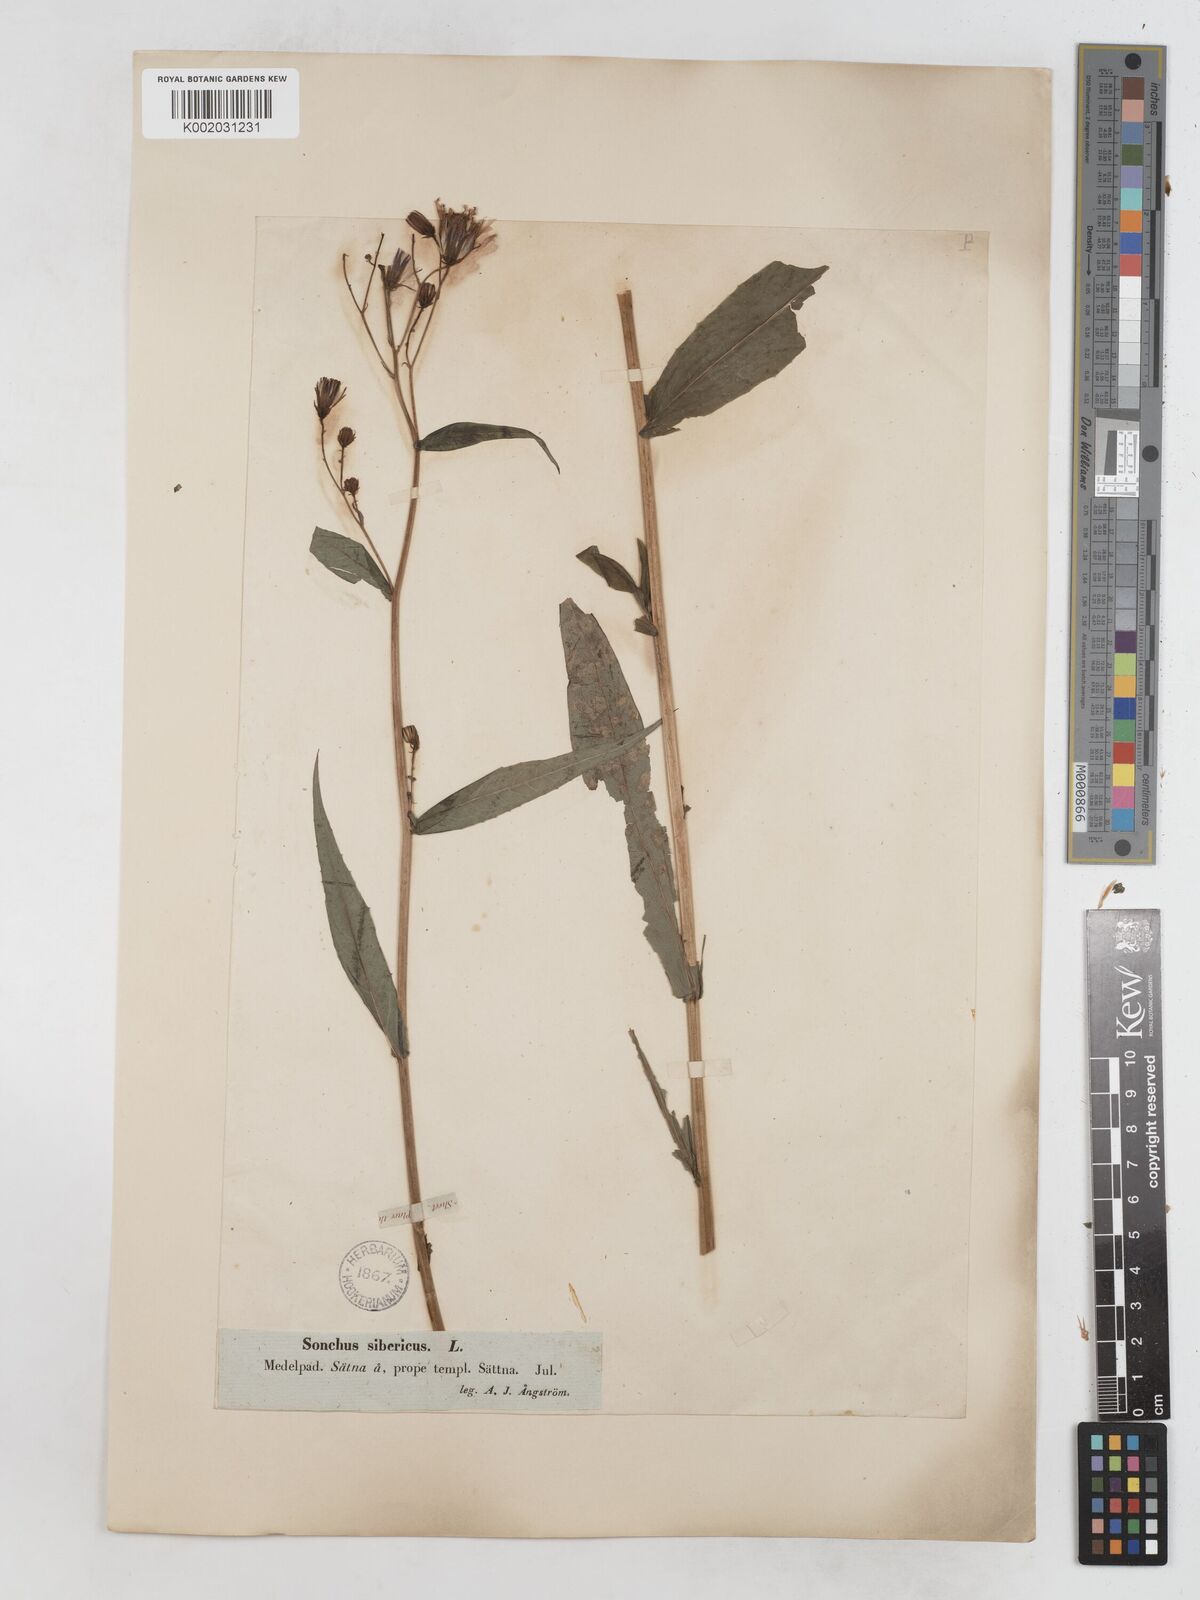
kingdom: Plantae
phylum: Tracheophyta
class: Magnoliopsida
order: Asterales
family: Asteraceae
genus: Lactuca
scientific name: Lactuca sibirica
